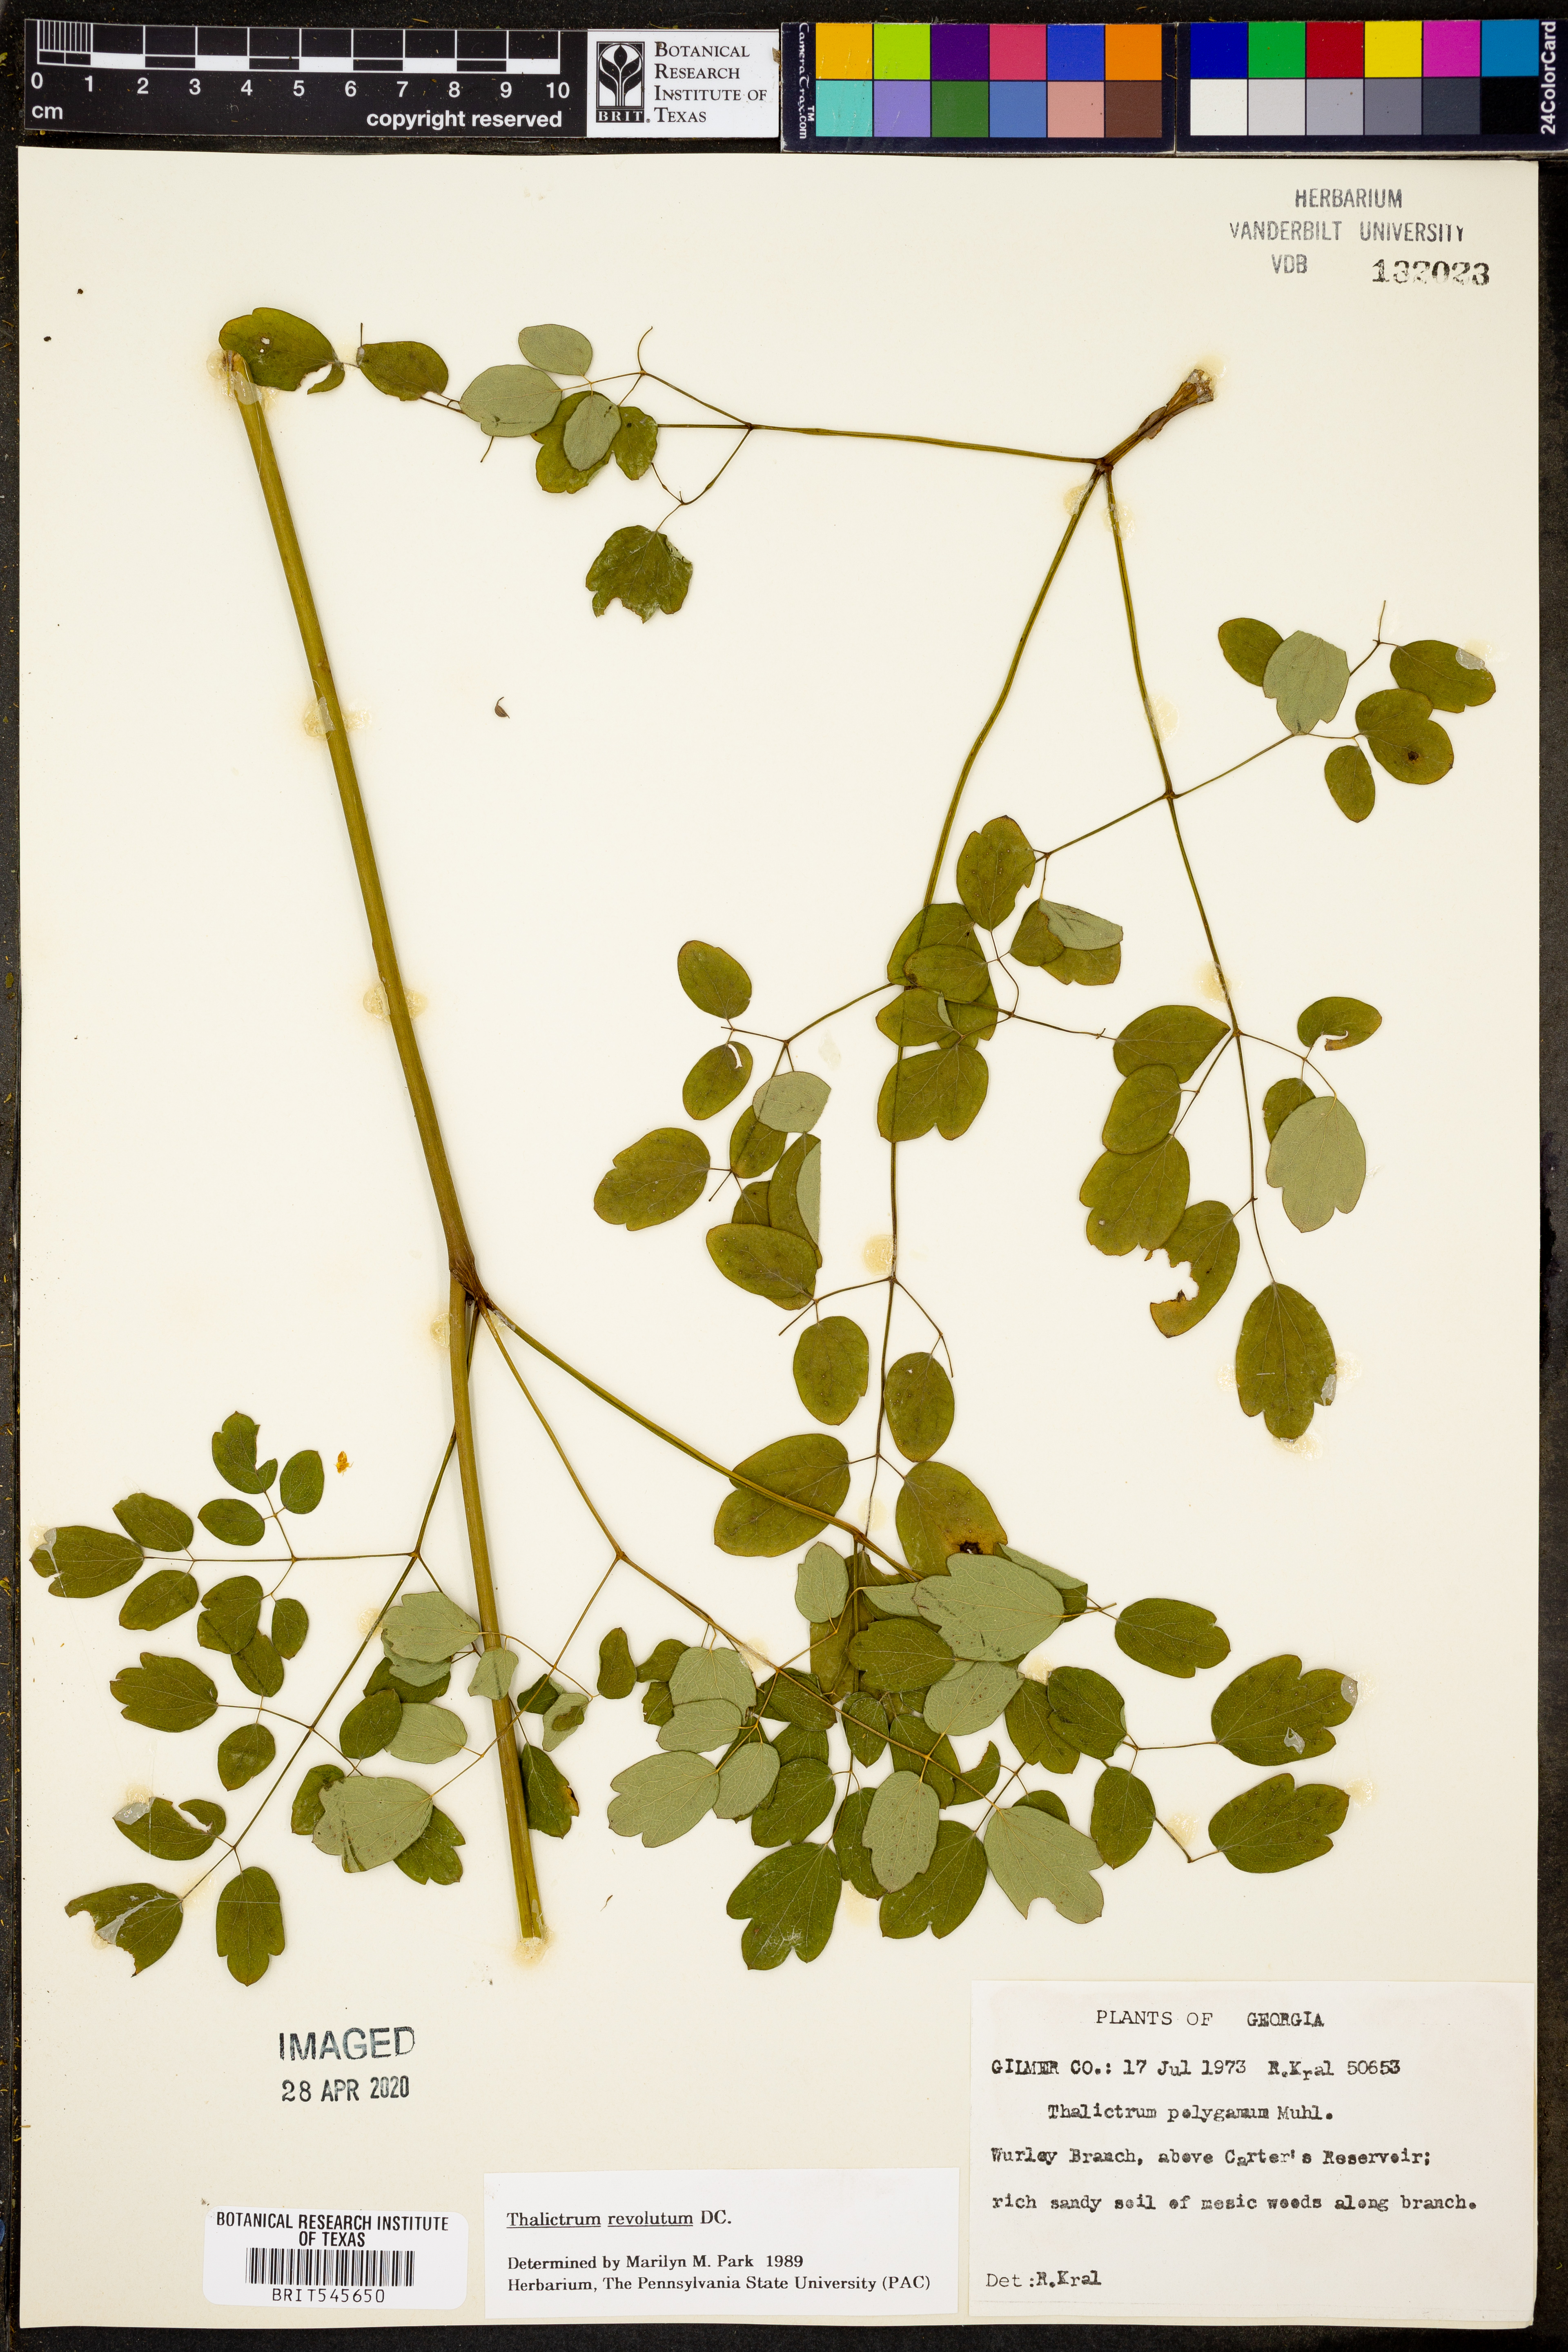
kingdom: Plantae
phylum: Tracheophyta
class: Magnoliopsida
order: Ranunculales
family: Ranunculaceae
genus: Thalictrum
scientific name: Thalictrum revolutum
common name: Waxy meadow-rue
